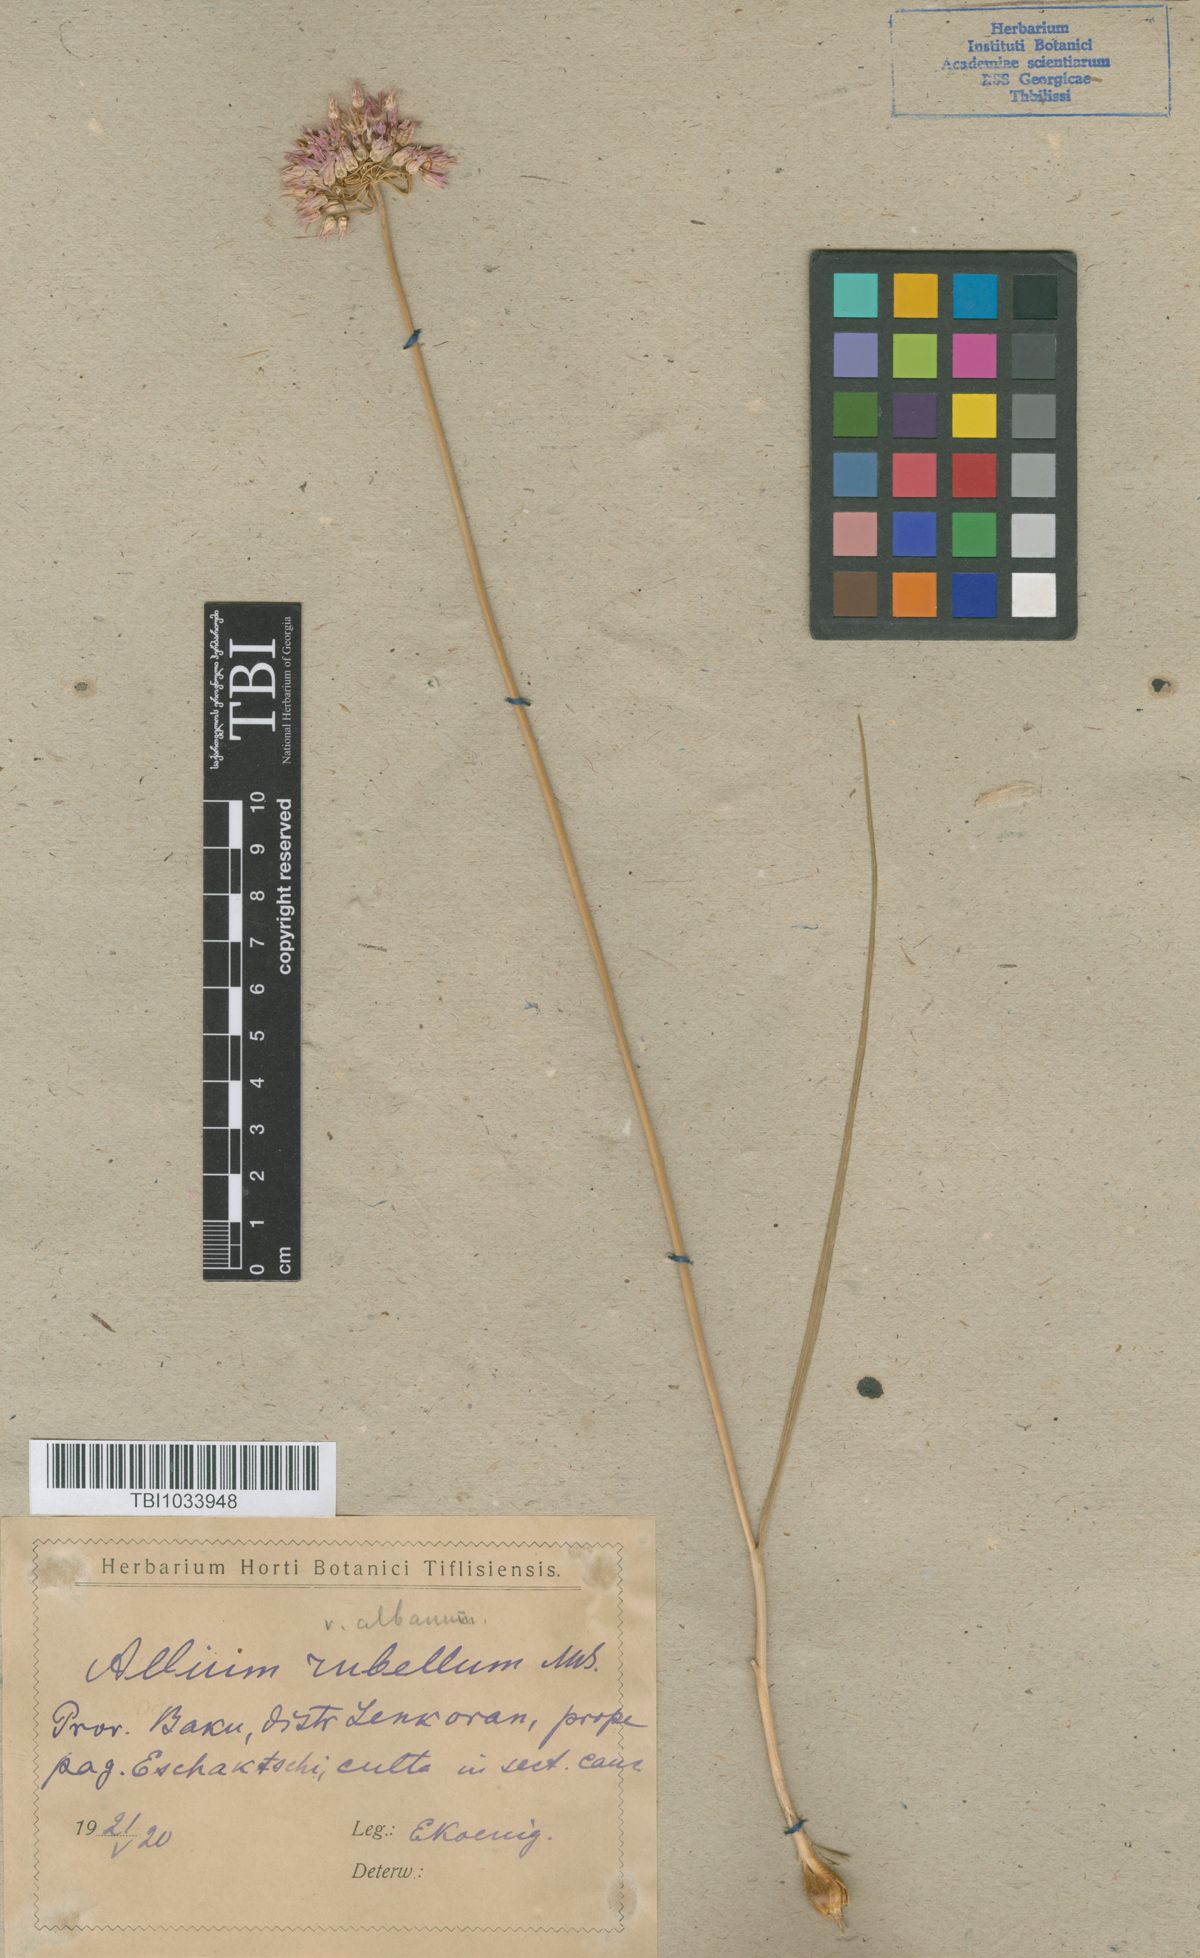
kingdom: Plantae
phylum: Tracheophyta
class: Liliopsida
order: Asparagales
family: Amaryllidaceae
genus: Allium
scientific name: Allium rubellum
